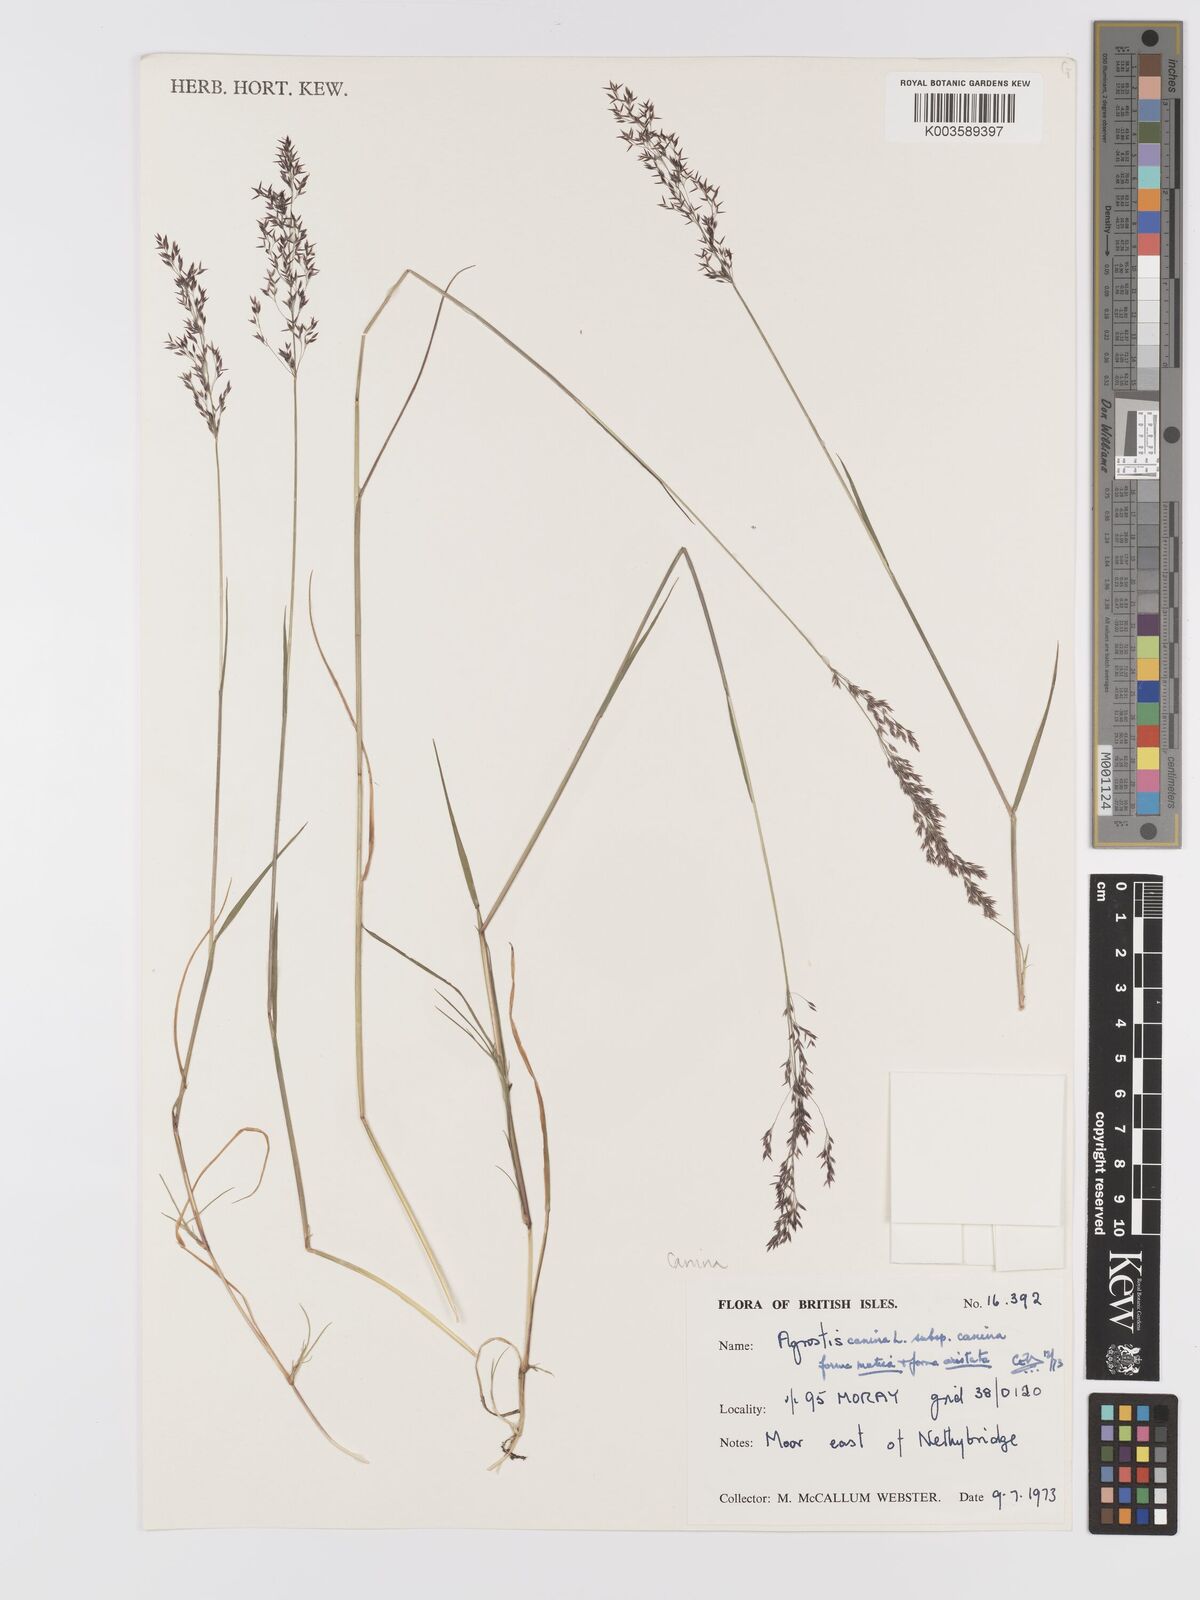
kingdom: Plantae
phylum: Tracheophyta
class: Liliopsida
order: Poales
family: Poaceae
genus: Agrostis
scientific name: Agrostis canina
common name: Velvet bent
